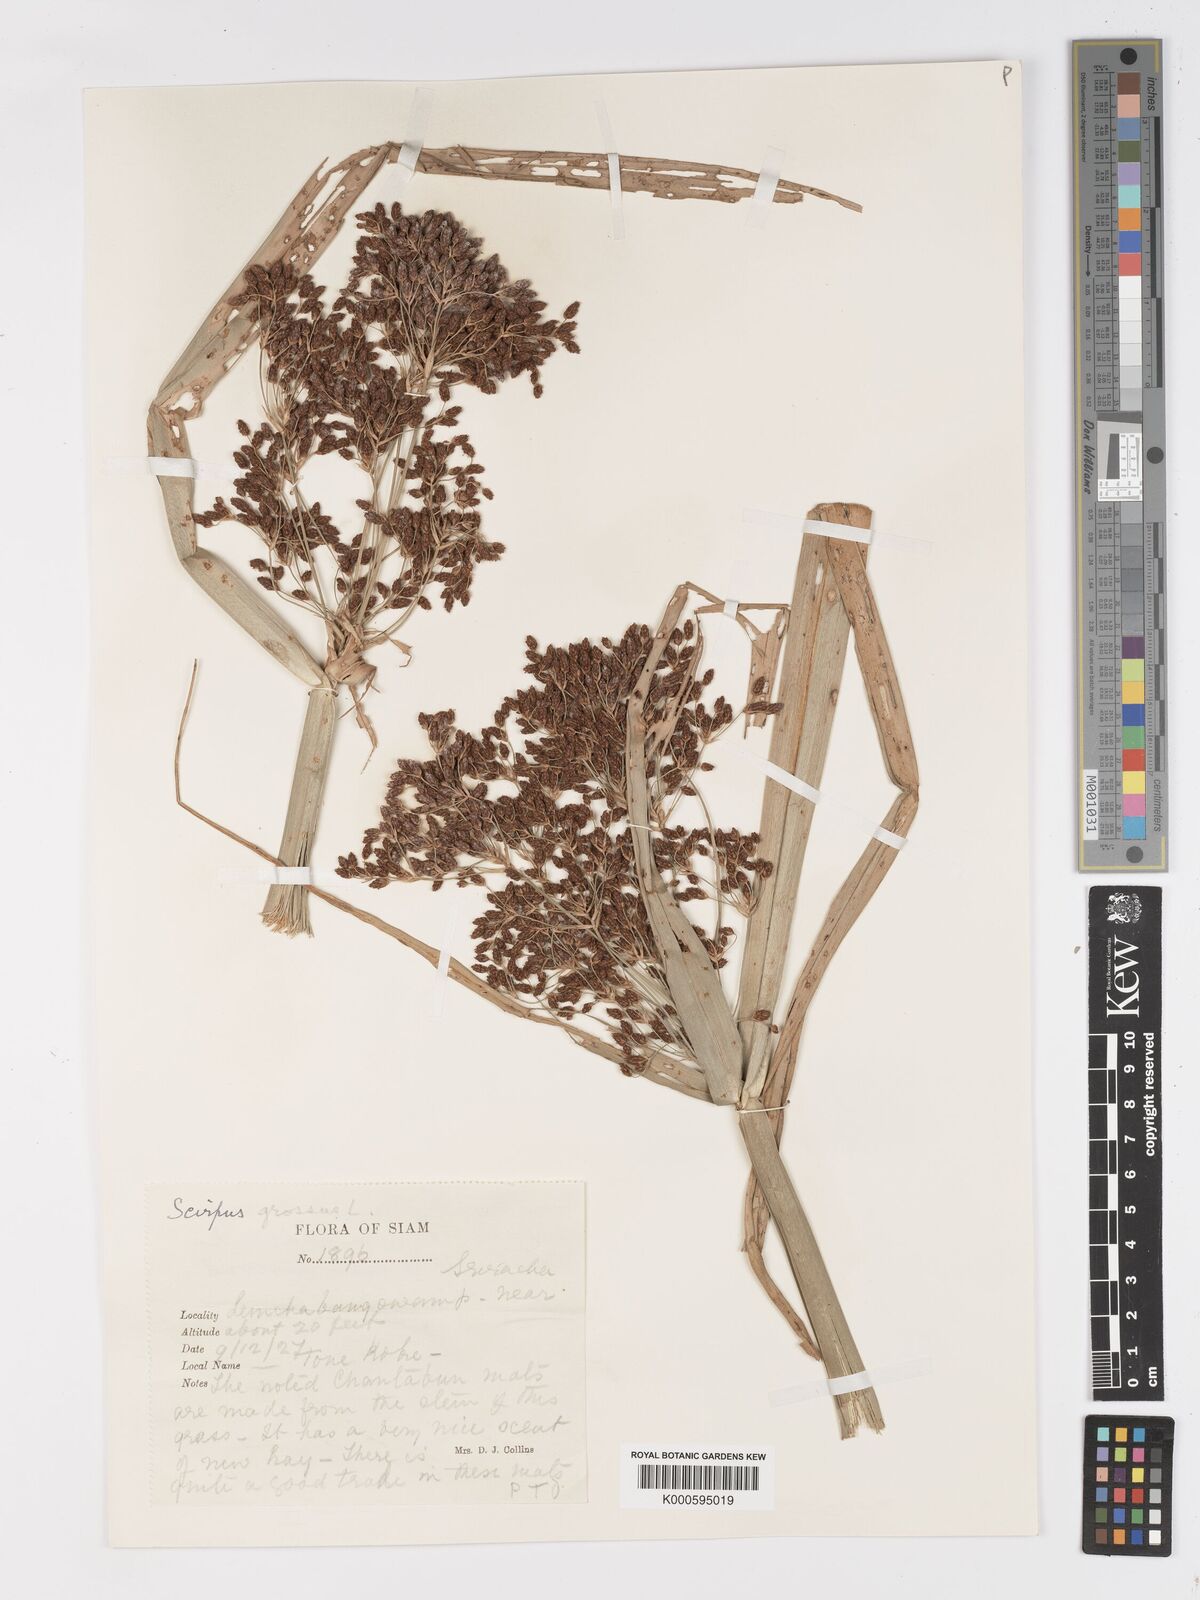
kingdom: Plantae
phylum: Tracheophyta
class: Liliopsida
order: Poales
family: Cyperaceae
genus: Actinoscirpus
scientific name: Actinoscirpus grossus
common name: Giant bur rush
